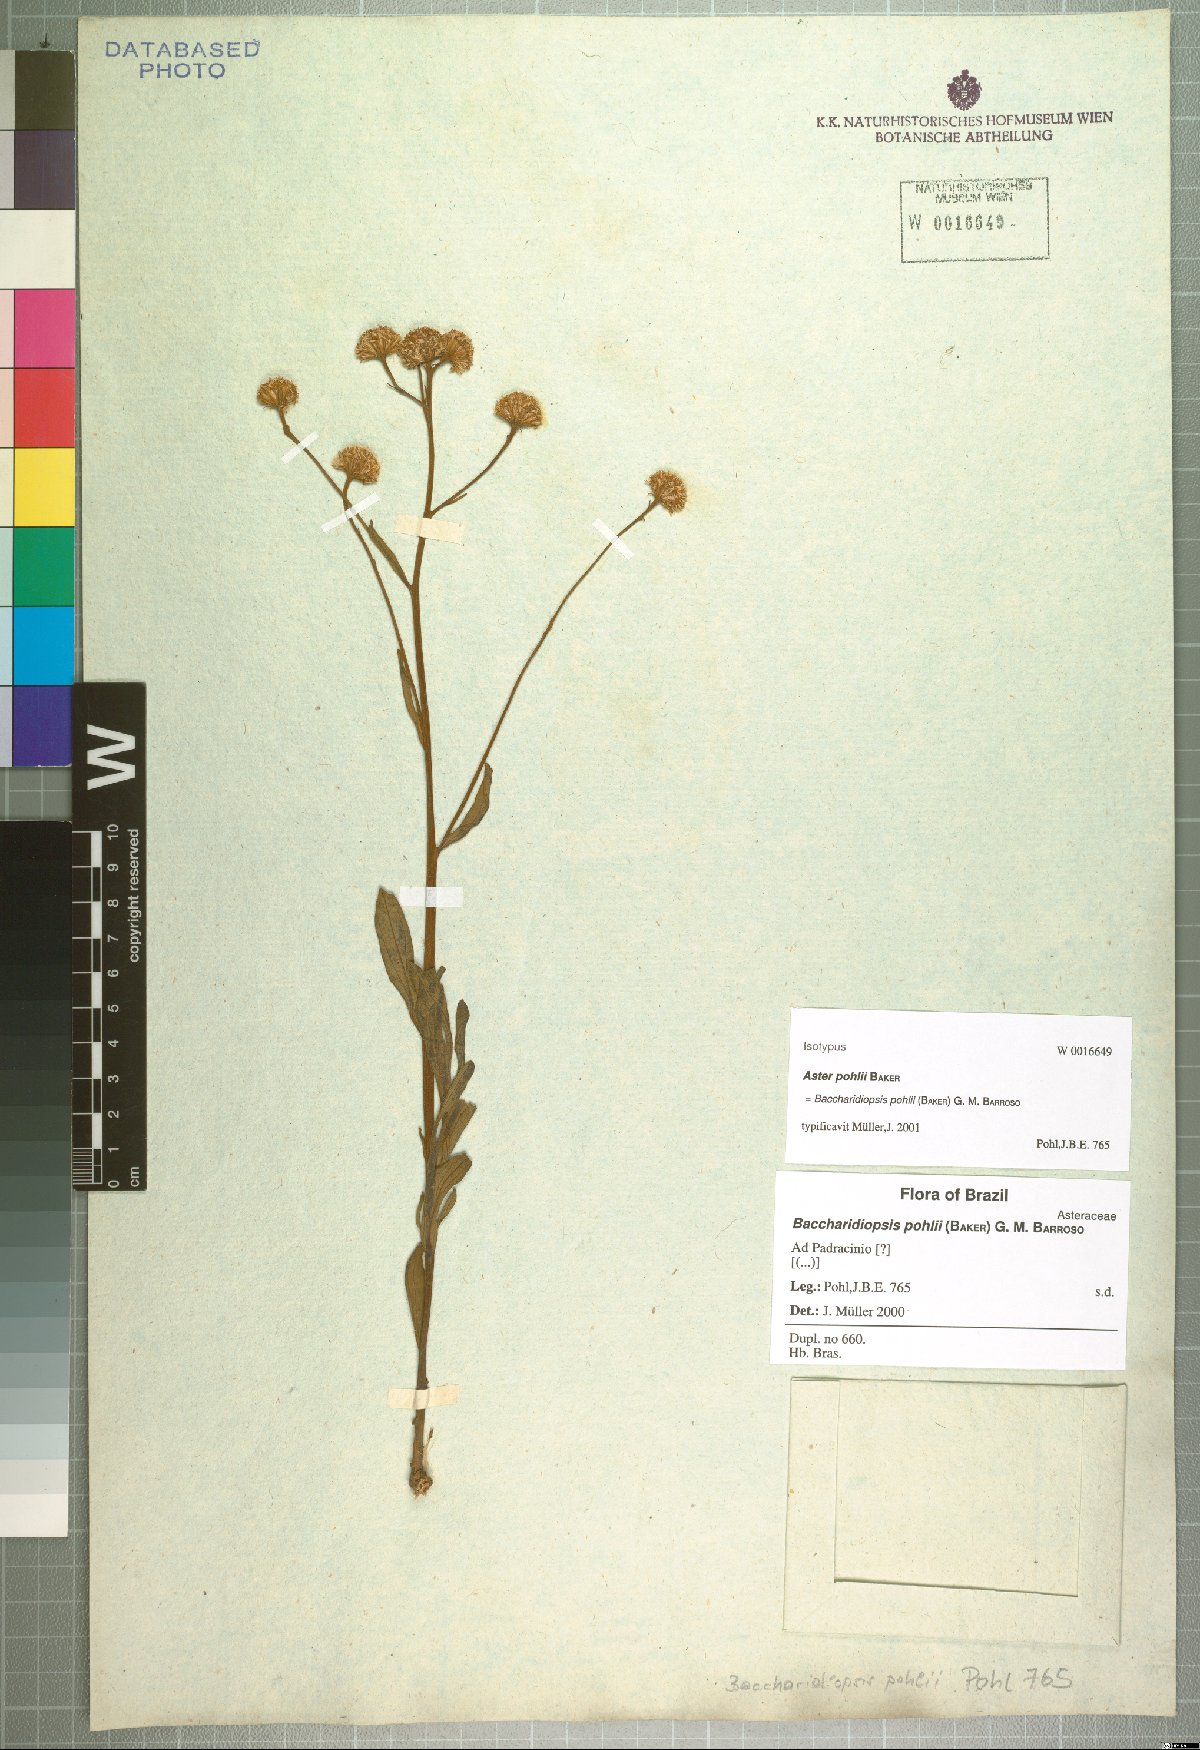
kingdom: Plantae
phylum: Tracheophyta
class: Magnoliopsida
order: Asterales
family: Asteraceae
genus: Baccharis
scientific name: Baccharis pohlii
